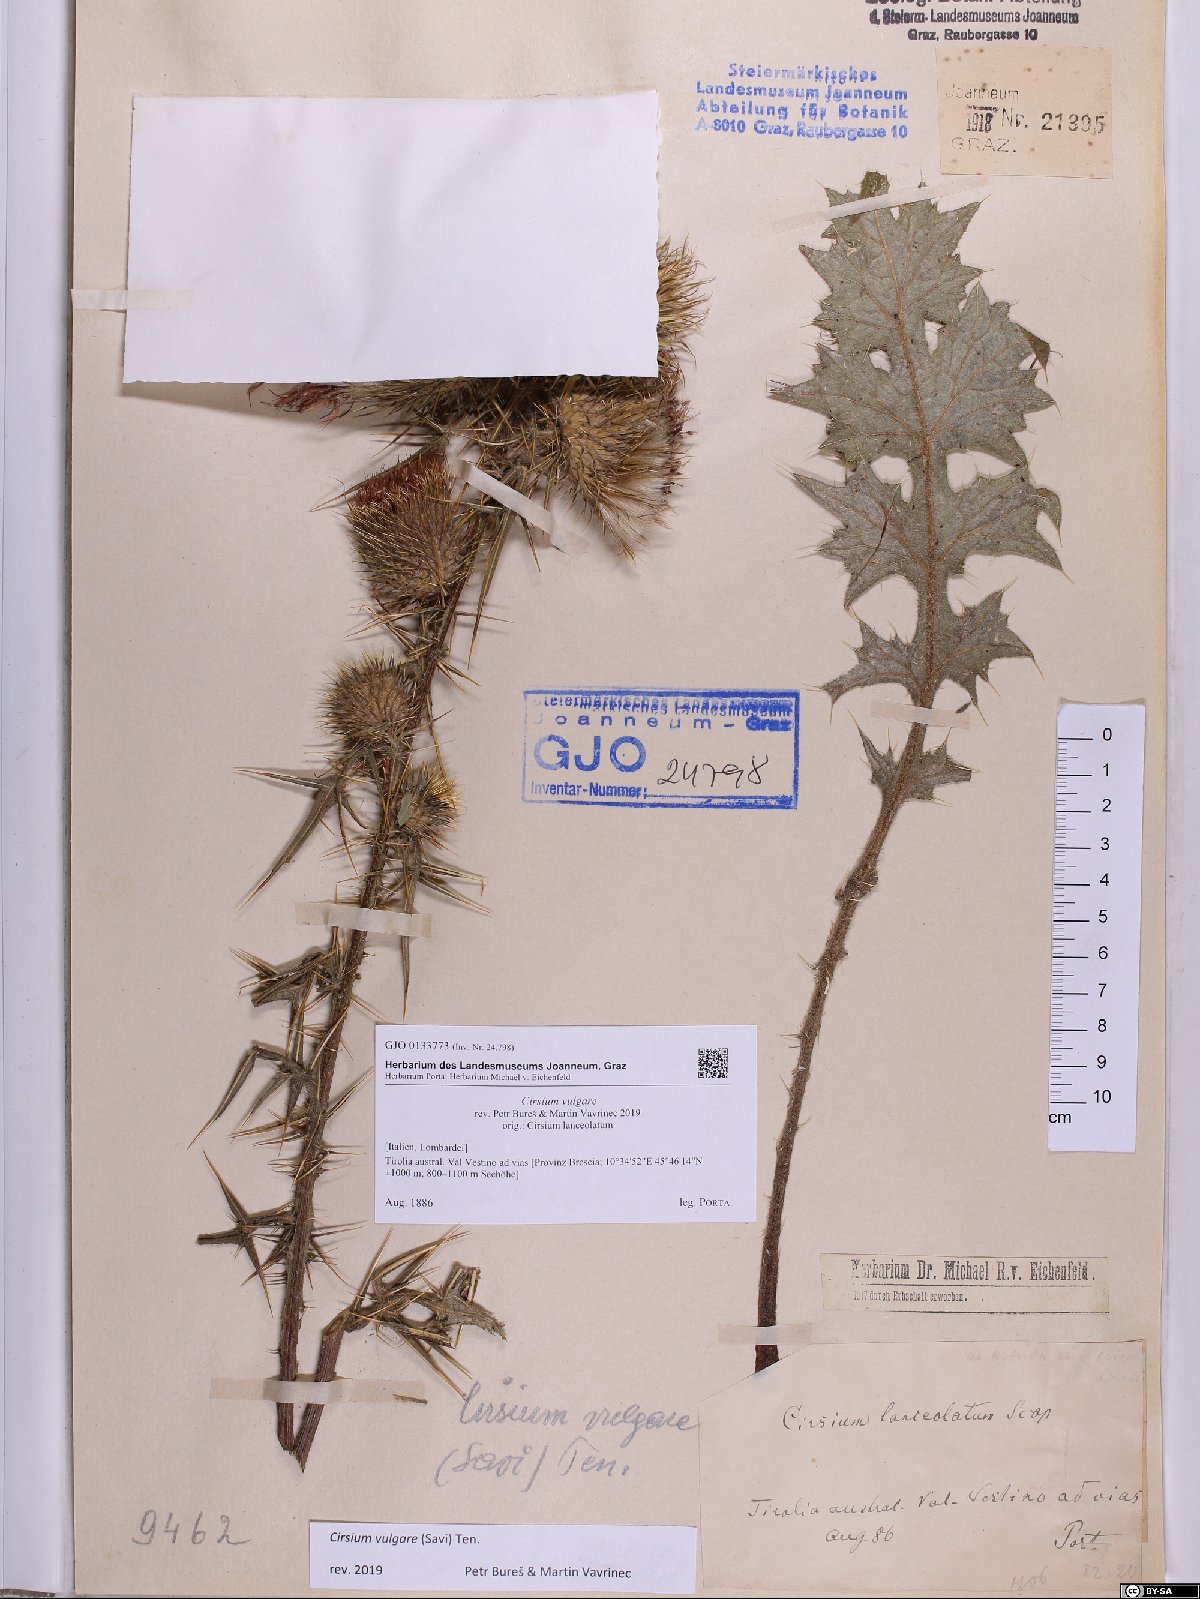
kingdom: Plantae
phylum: Tracheophyta
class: Magnoliopsida
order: Asterales
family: Asteraceae
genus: Cirsium
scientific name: Cirsium vulgare
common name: Bull thistle
